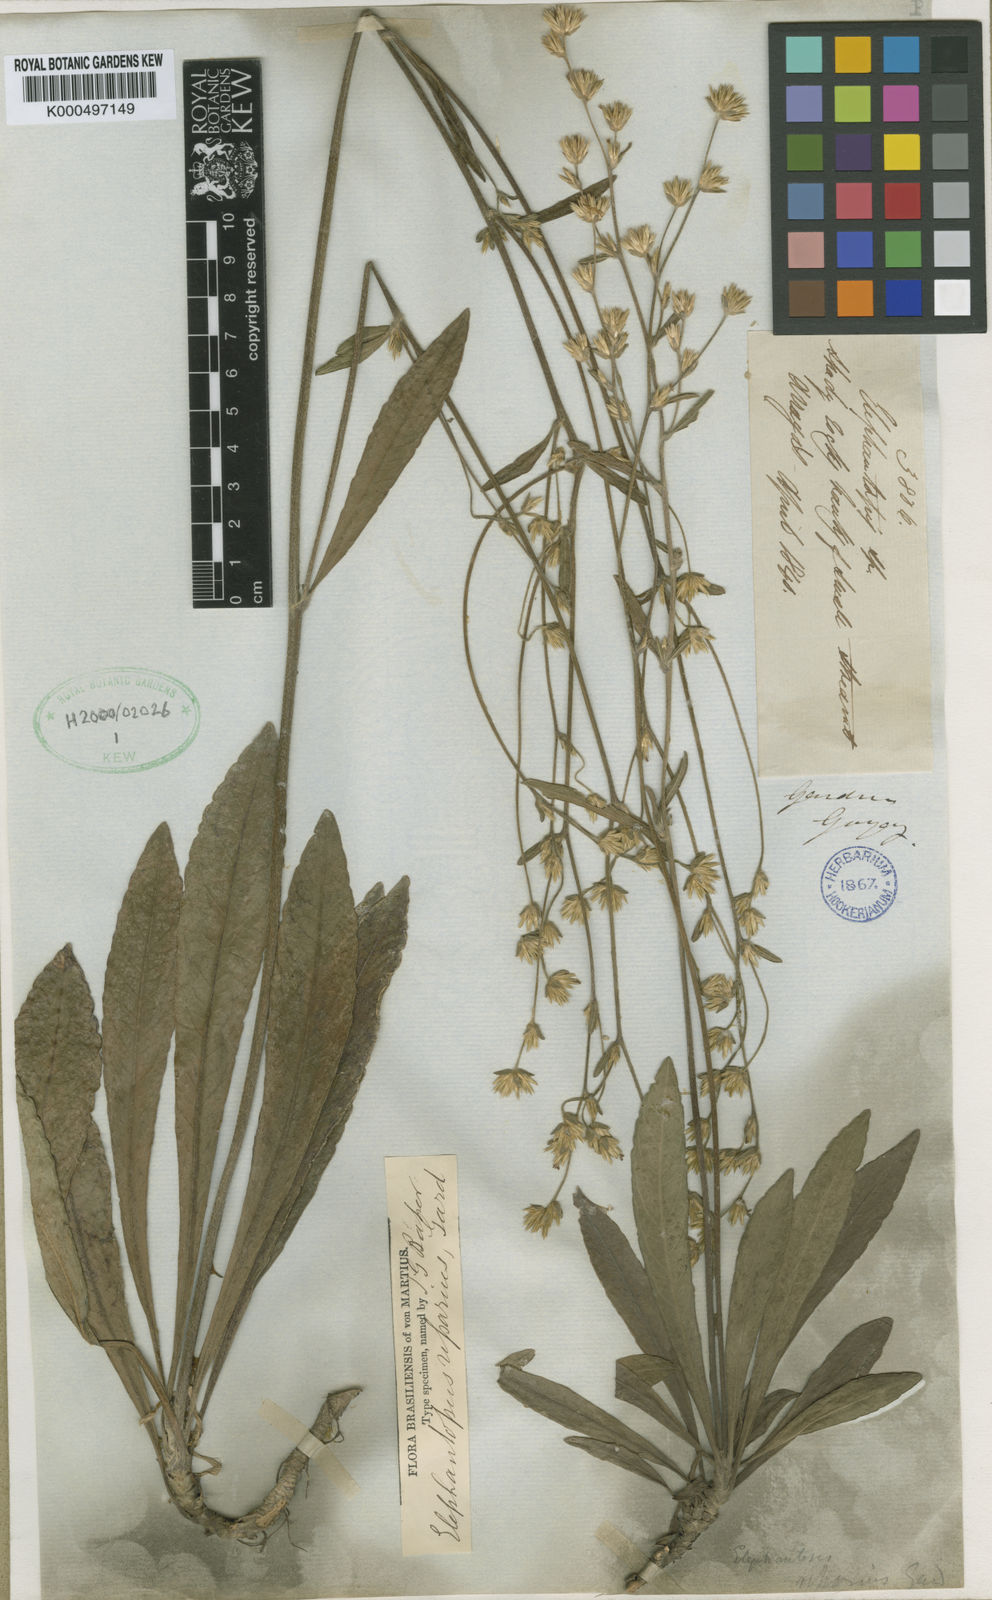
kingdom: Plantae
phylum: Tracheophyta
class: Magnoliopsida
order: Asterales
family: Asteraceae
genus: Elephantopus
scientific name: Elephantopus riparius
